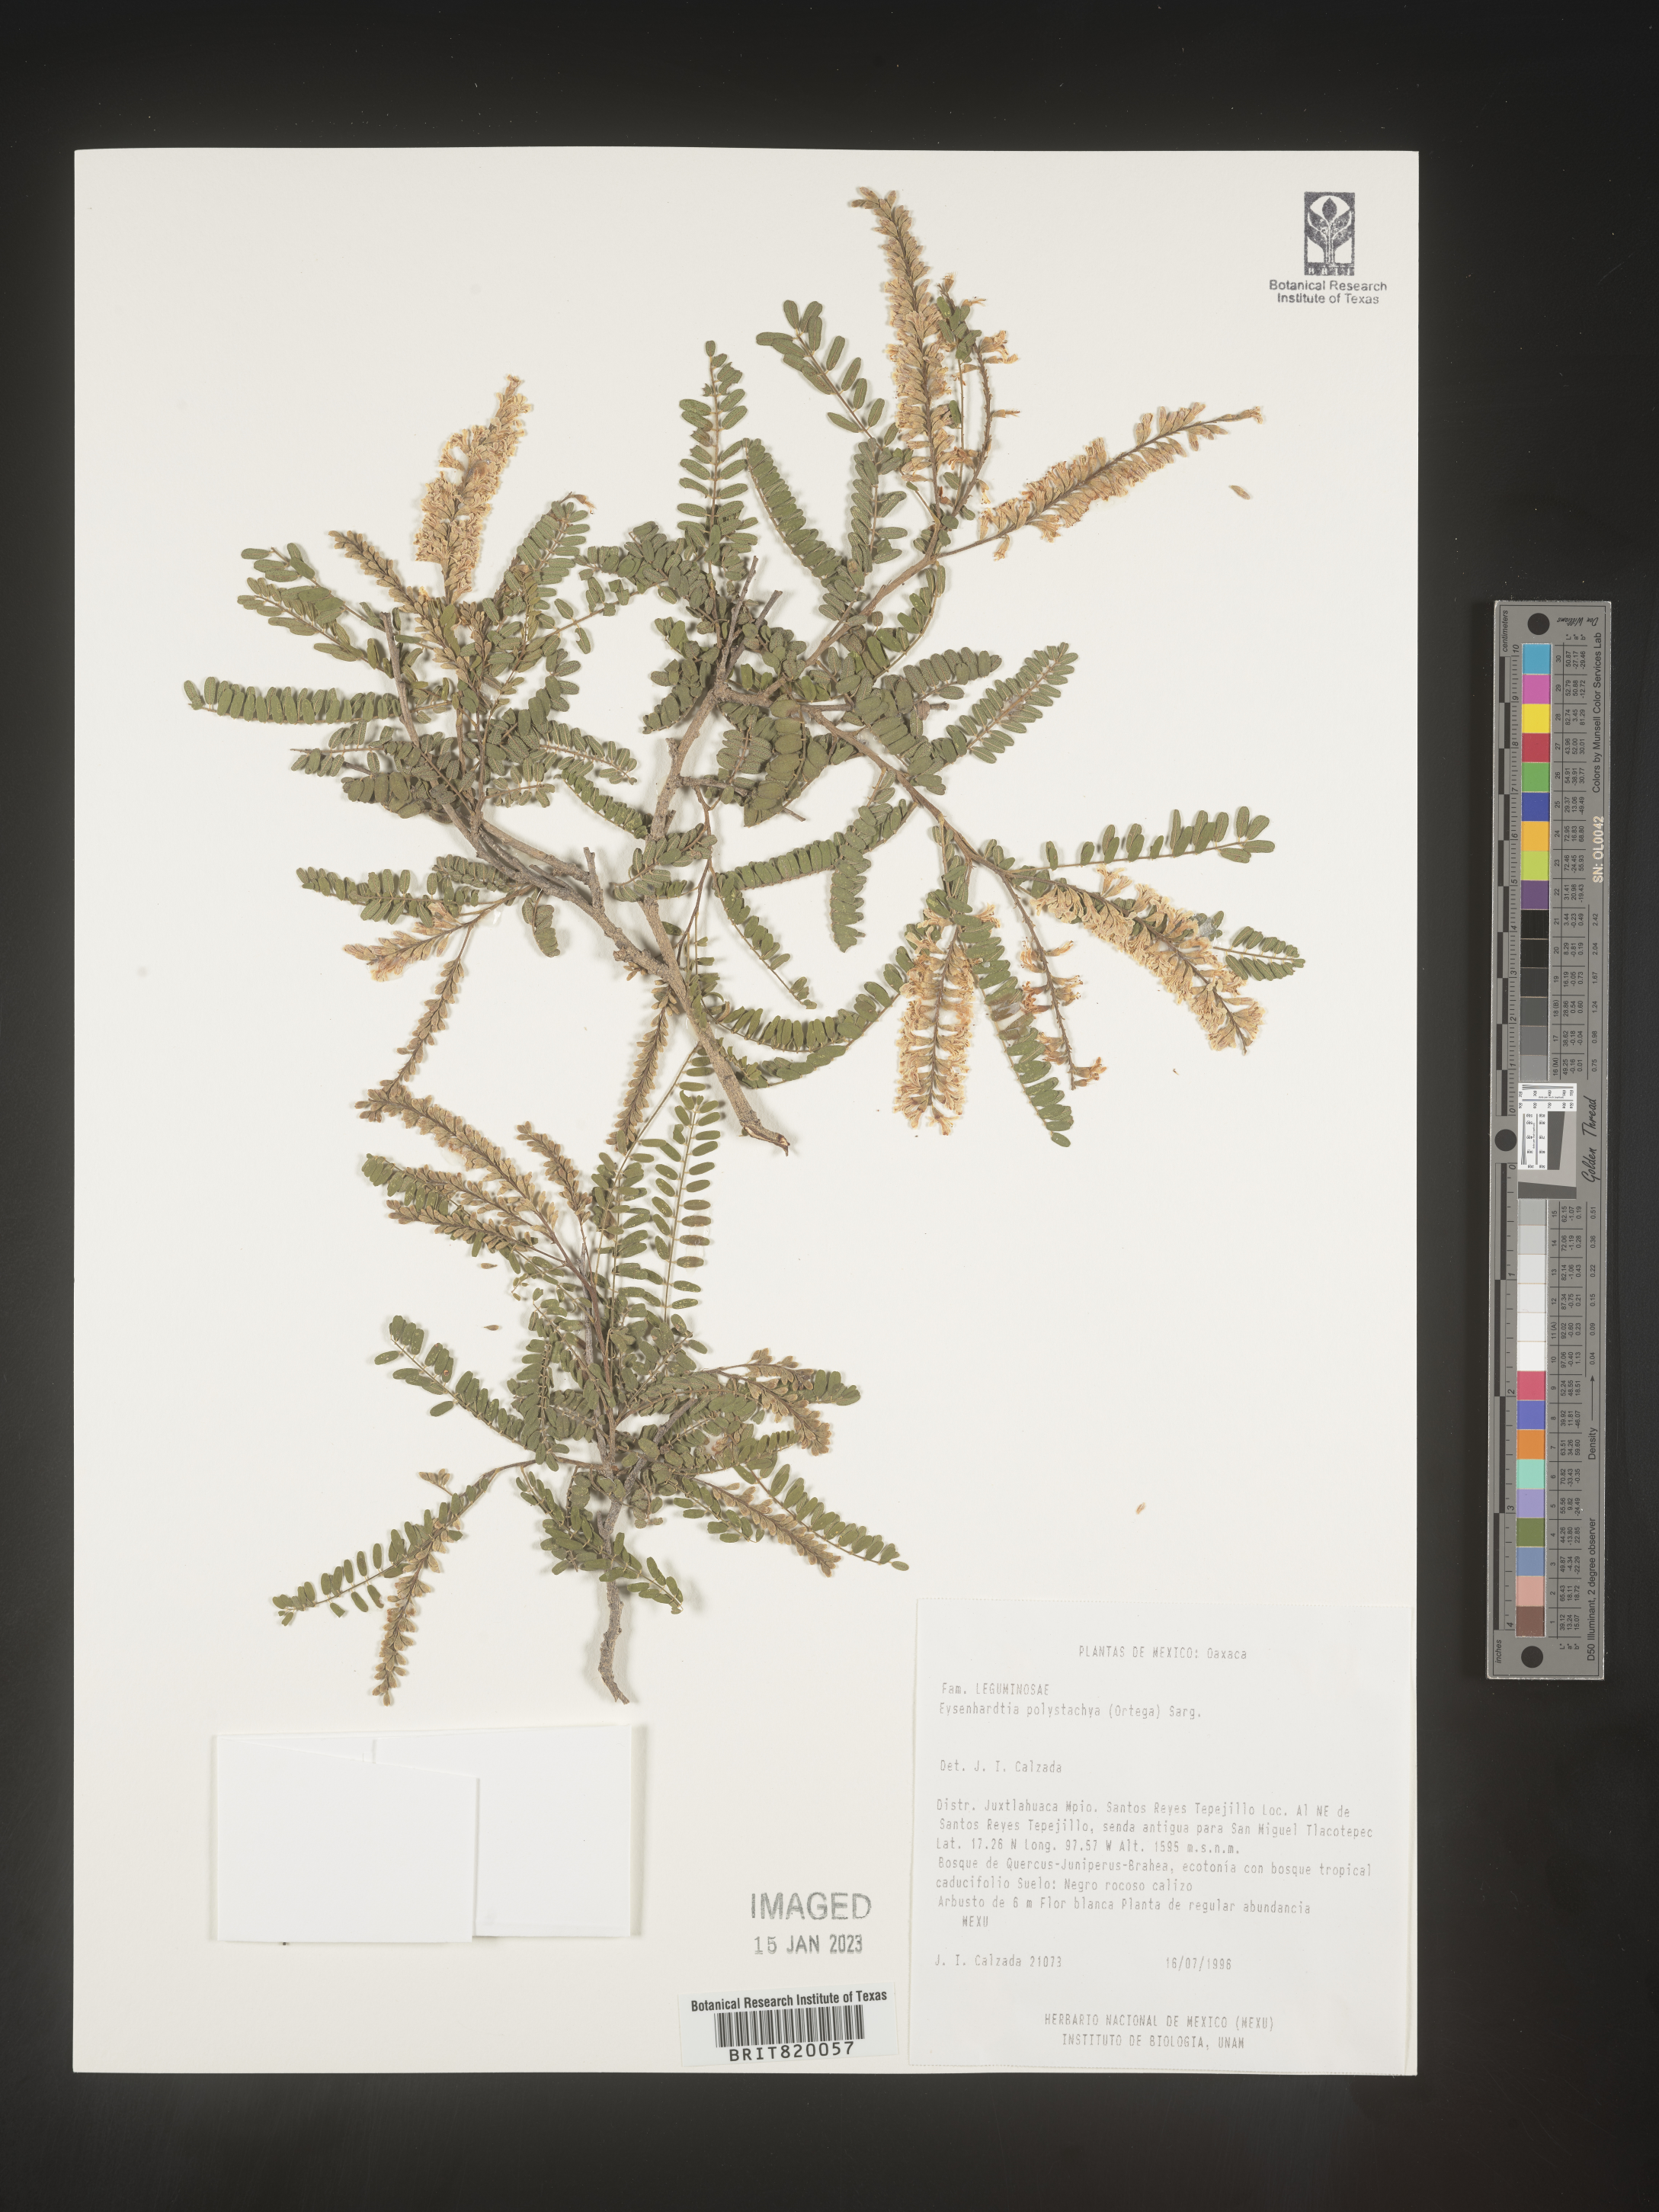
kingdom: Plantae
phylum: Tracheophyta
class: Magnoliopsida
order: Fabales
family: Fabaceae
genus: Eysenhardtia
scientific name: Eysenhardtia
